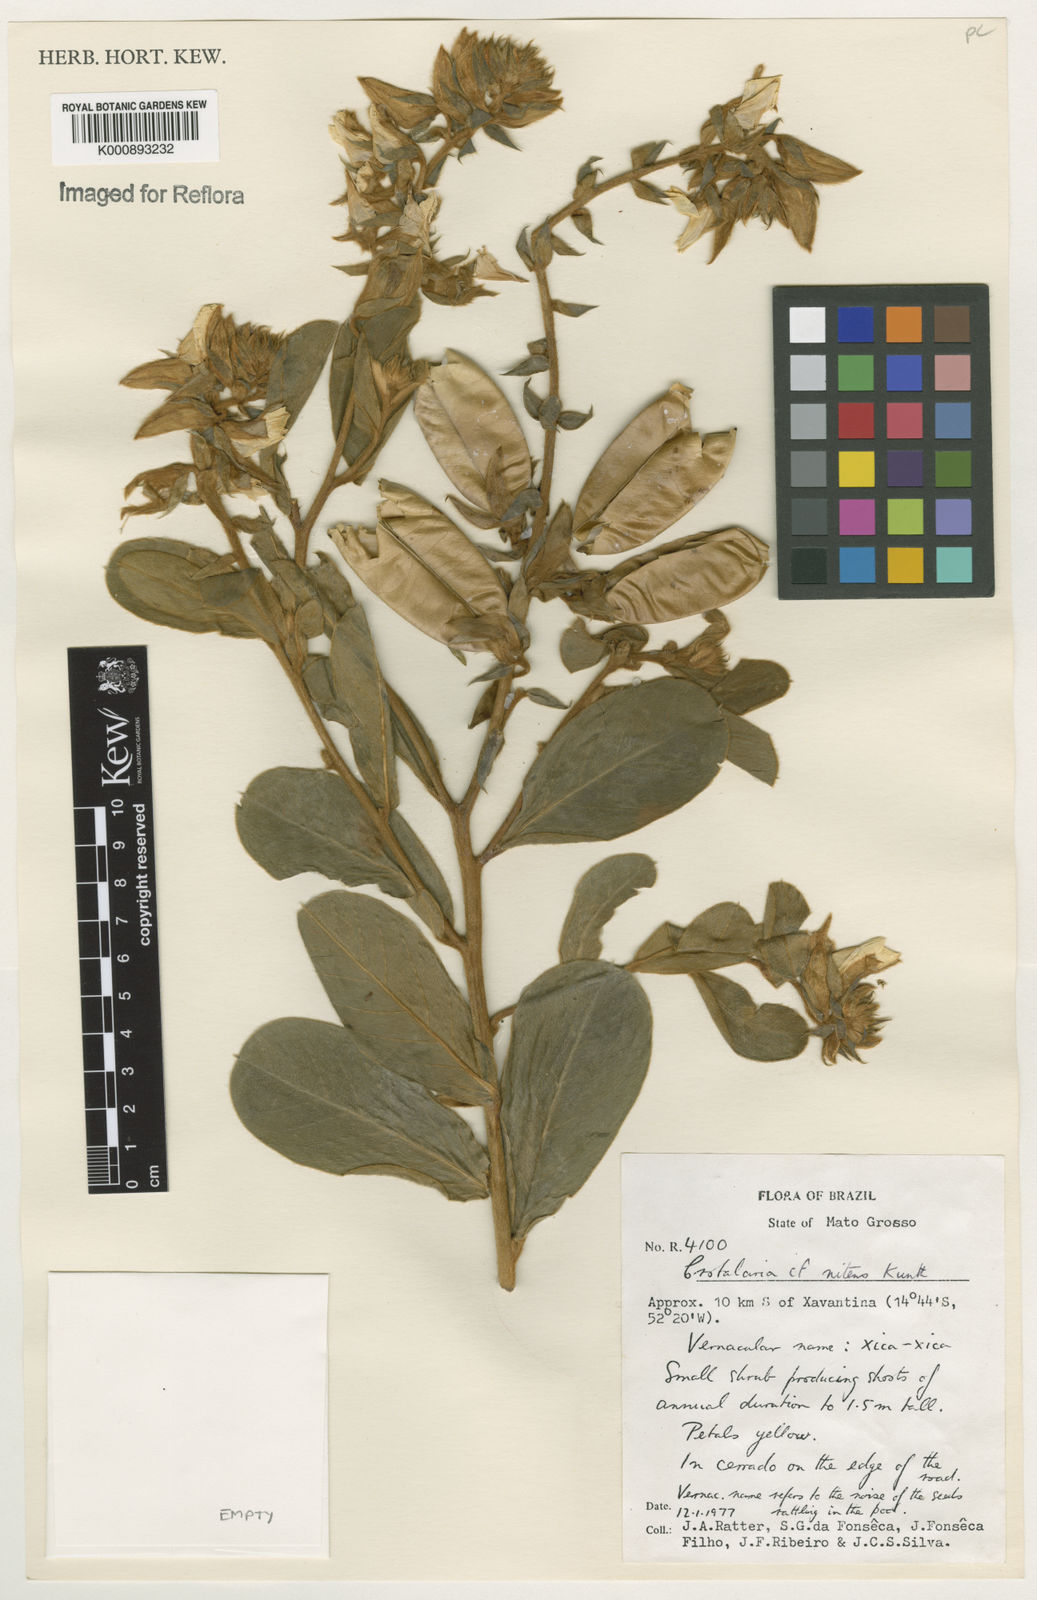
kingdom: Plantae
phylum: Tracheophyta
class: Magnoliopsida
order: Fabales
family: Fabaceae
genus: Crotalaria
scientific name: Crotalaria martiana
